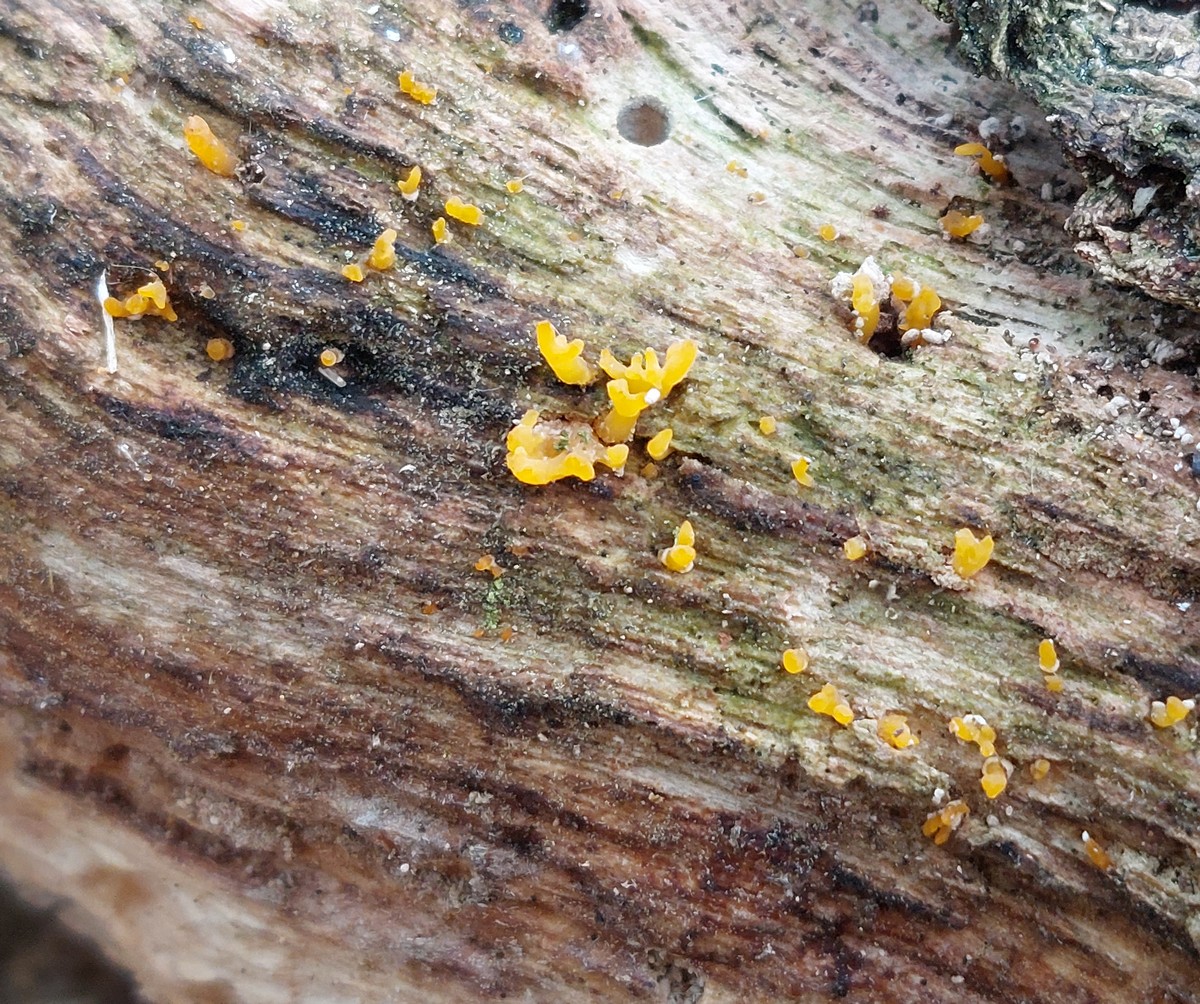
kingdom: Fungi
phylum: Basidiomycota
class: Dacrymycetes
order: Dacrymycetales
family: Dacrymycetaceae
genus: Calocera
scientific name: Calocera furcata
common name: fyrre-guldgaffel
